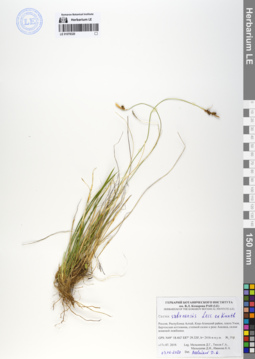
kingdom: Plantae
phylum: Tracheophyta
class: Liliopsida
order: Poales
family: Cyperaceae
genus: Carex
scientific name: Carex umbrosa
